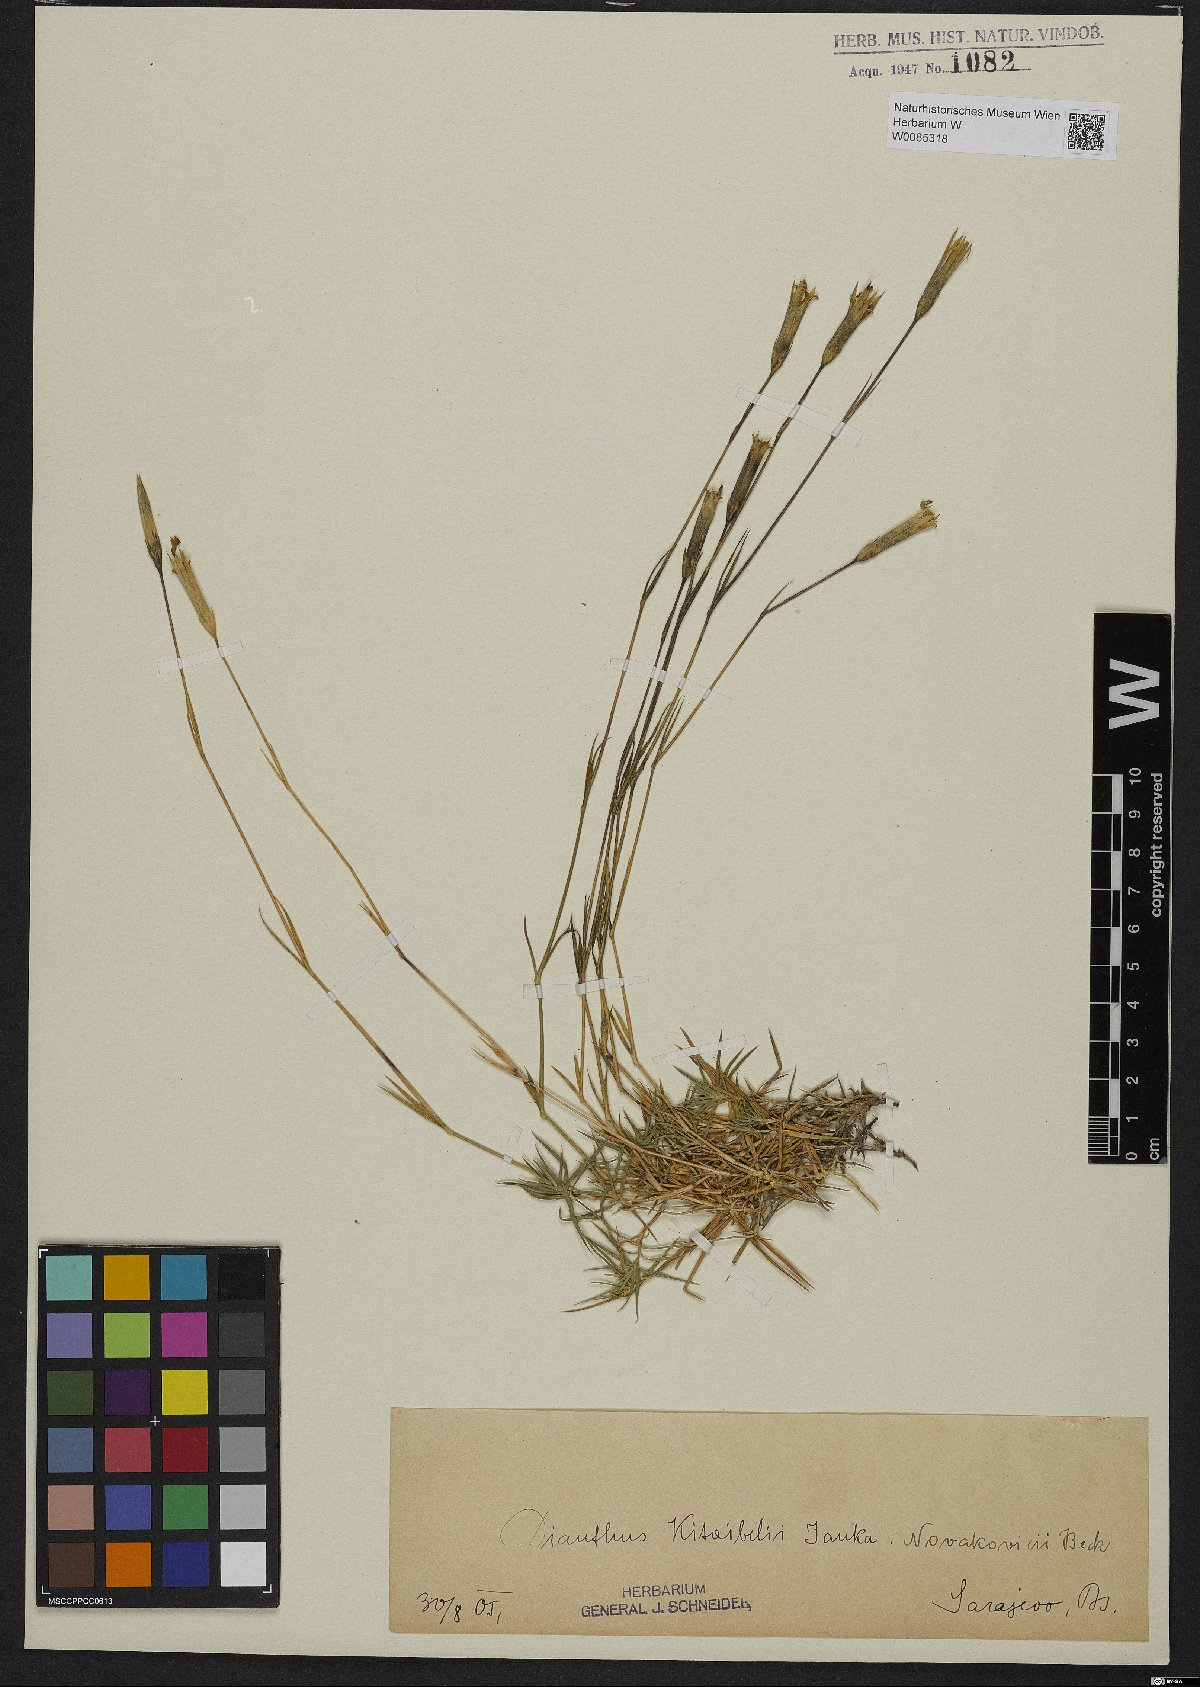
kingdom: Plantae
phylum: Tracheophyta
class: Magnoliopsida
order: Caryophyllales
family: Caryophyllaceae
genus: Dianthus
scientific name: Dianthus petraeus
